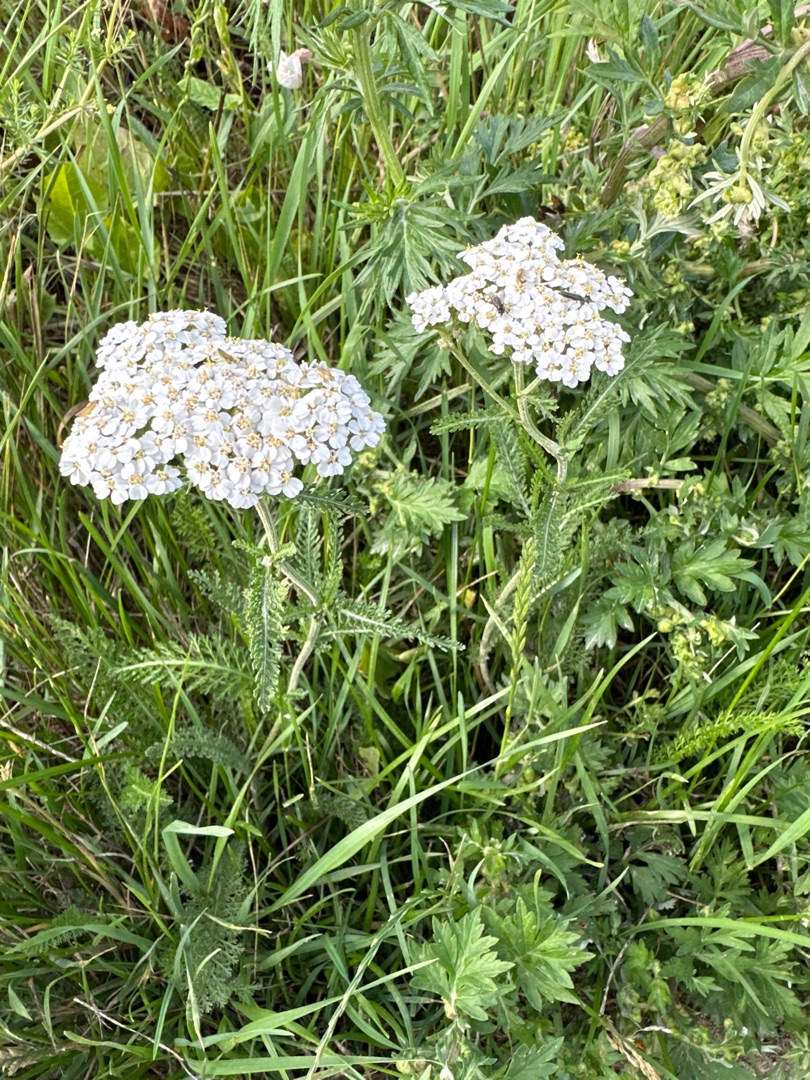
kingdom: Plantae
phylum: Tracheophyta
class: Magnoliopsida
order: Asterales
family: Asteraceae
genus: Achillea
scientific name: Achillea millefolium
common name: Almindelig røllike
